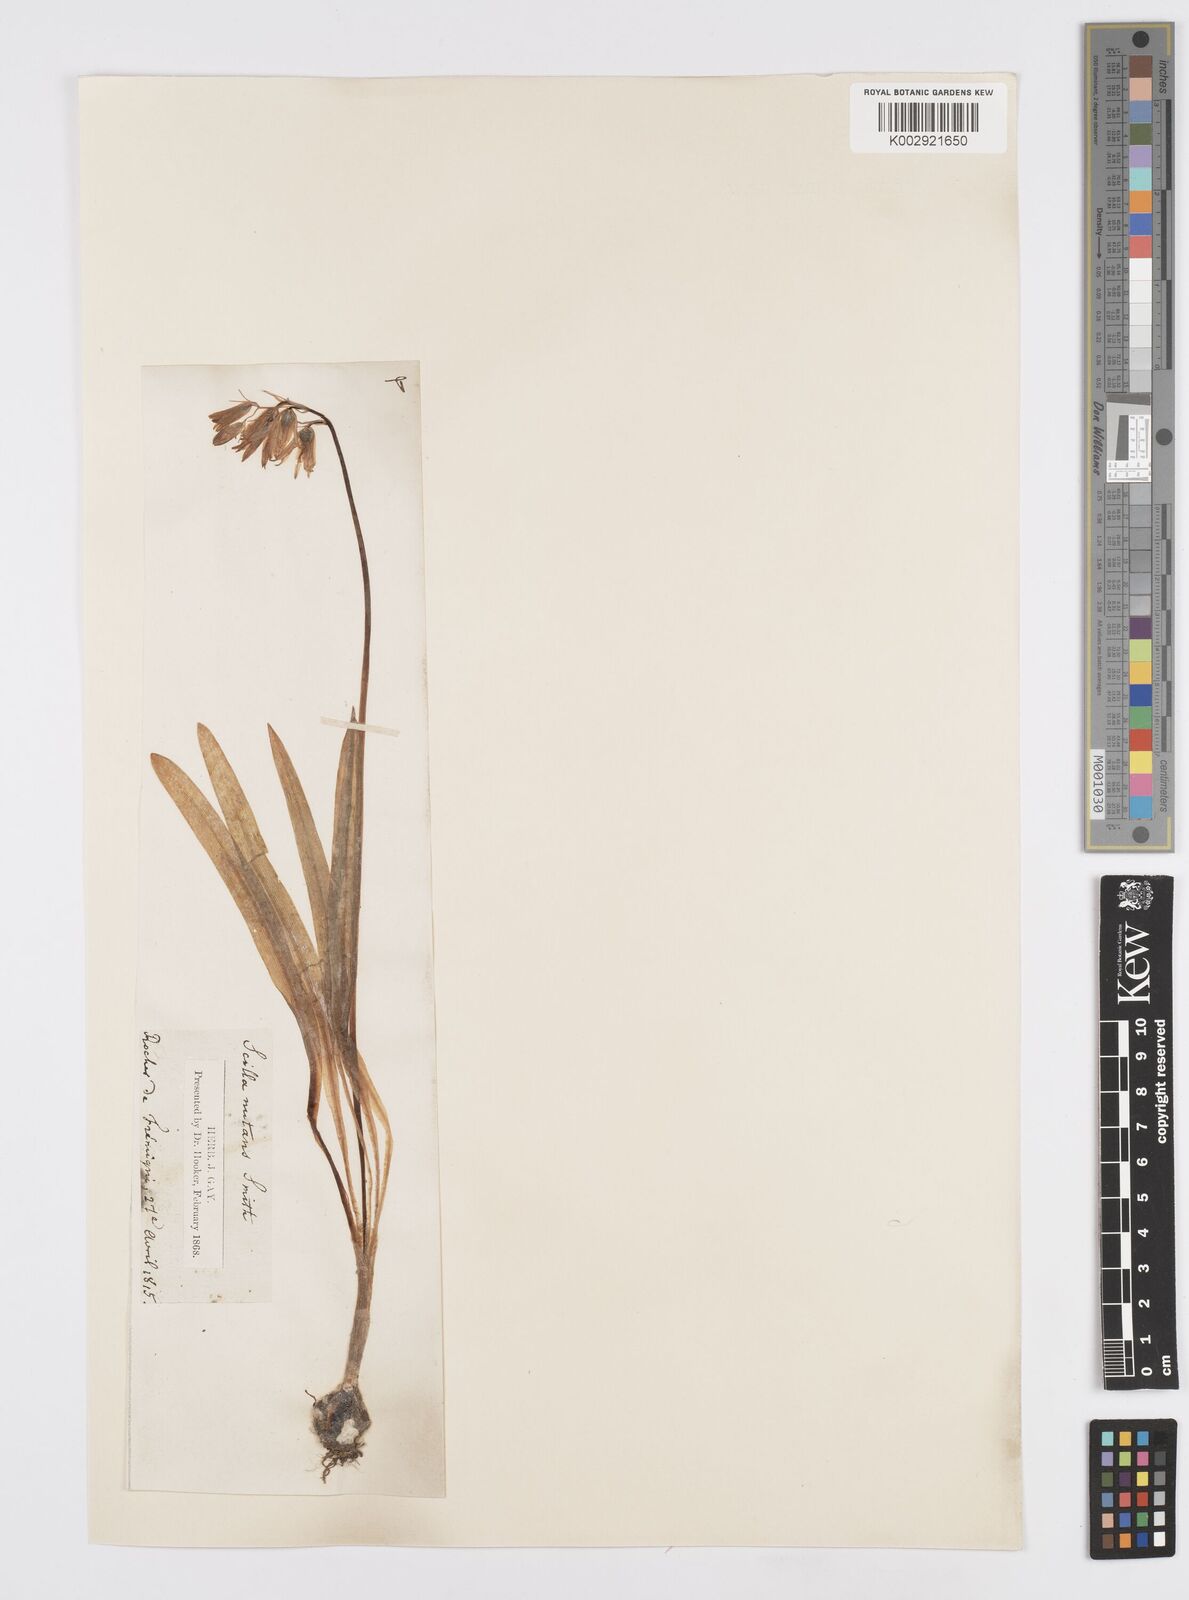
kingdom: Plantae
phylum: Tracheophyta
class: Liliopsida
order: Asparagales
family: Asparagaceae
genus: Hyacinthoides
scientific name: Hyacinthoides non-scripta
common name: Bluebell
